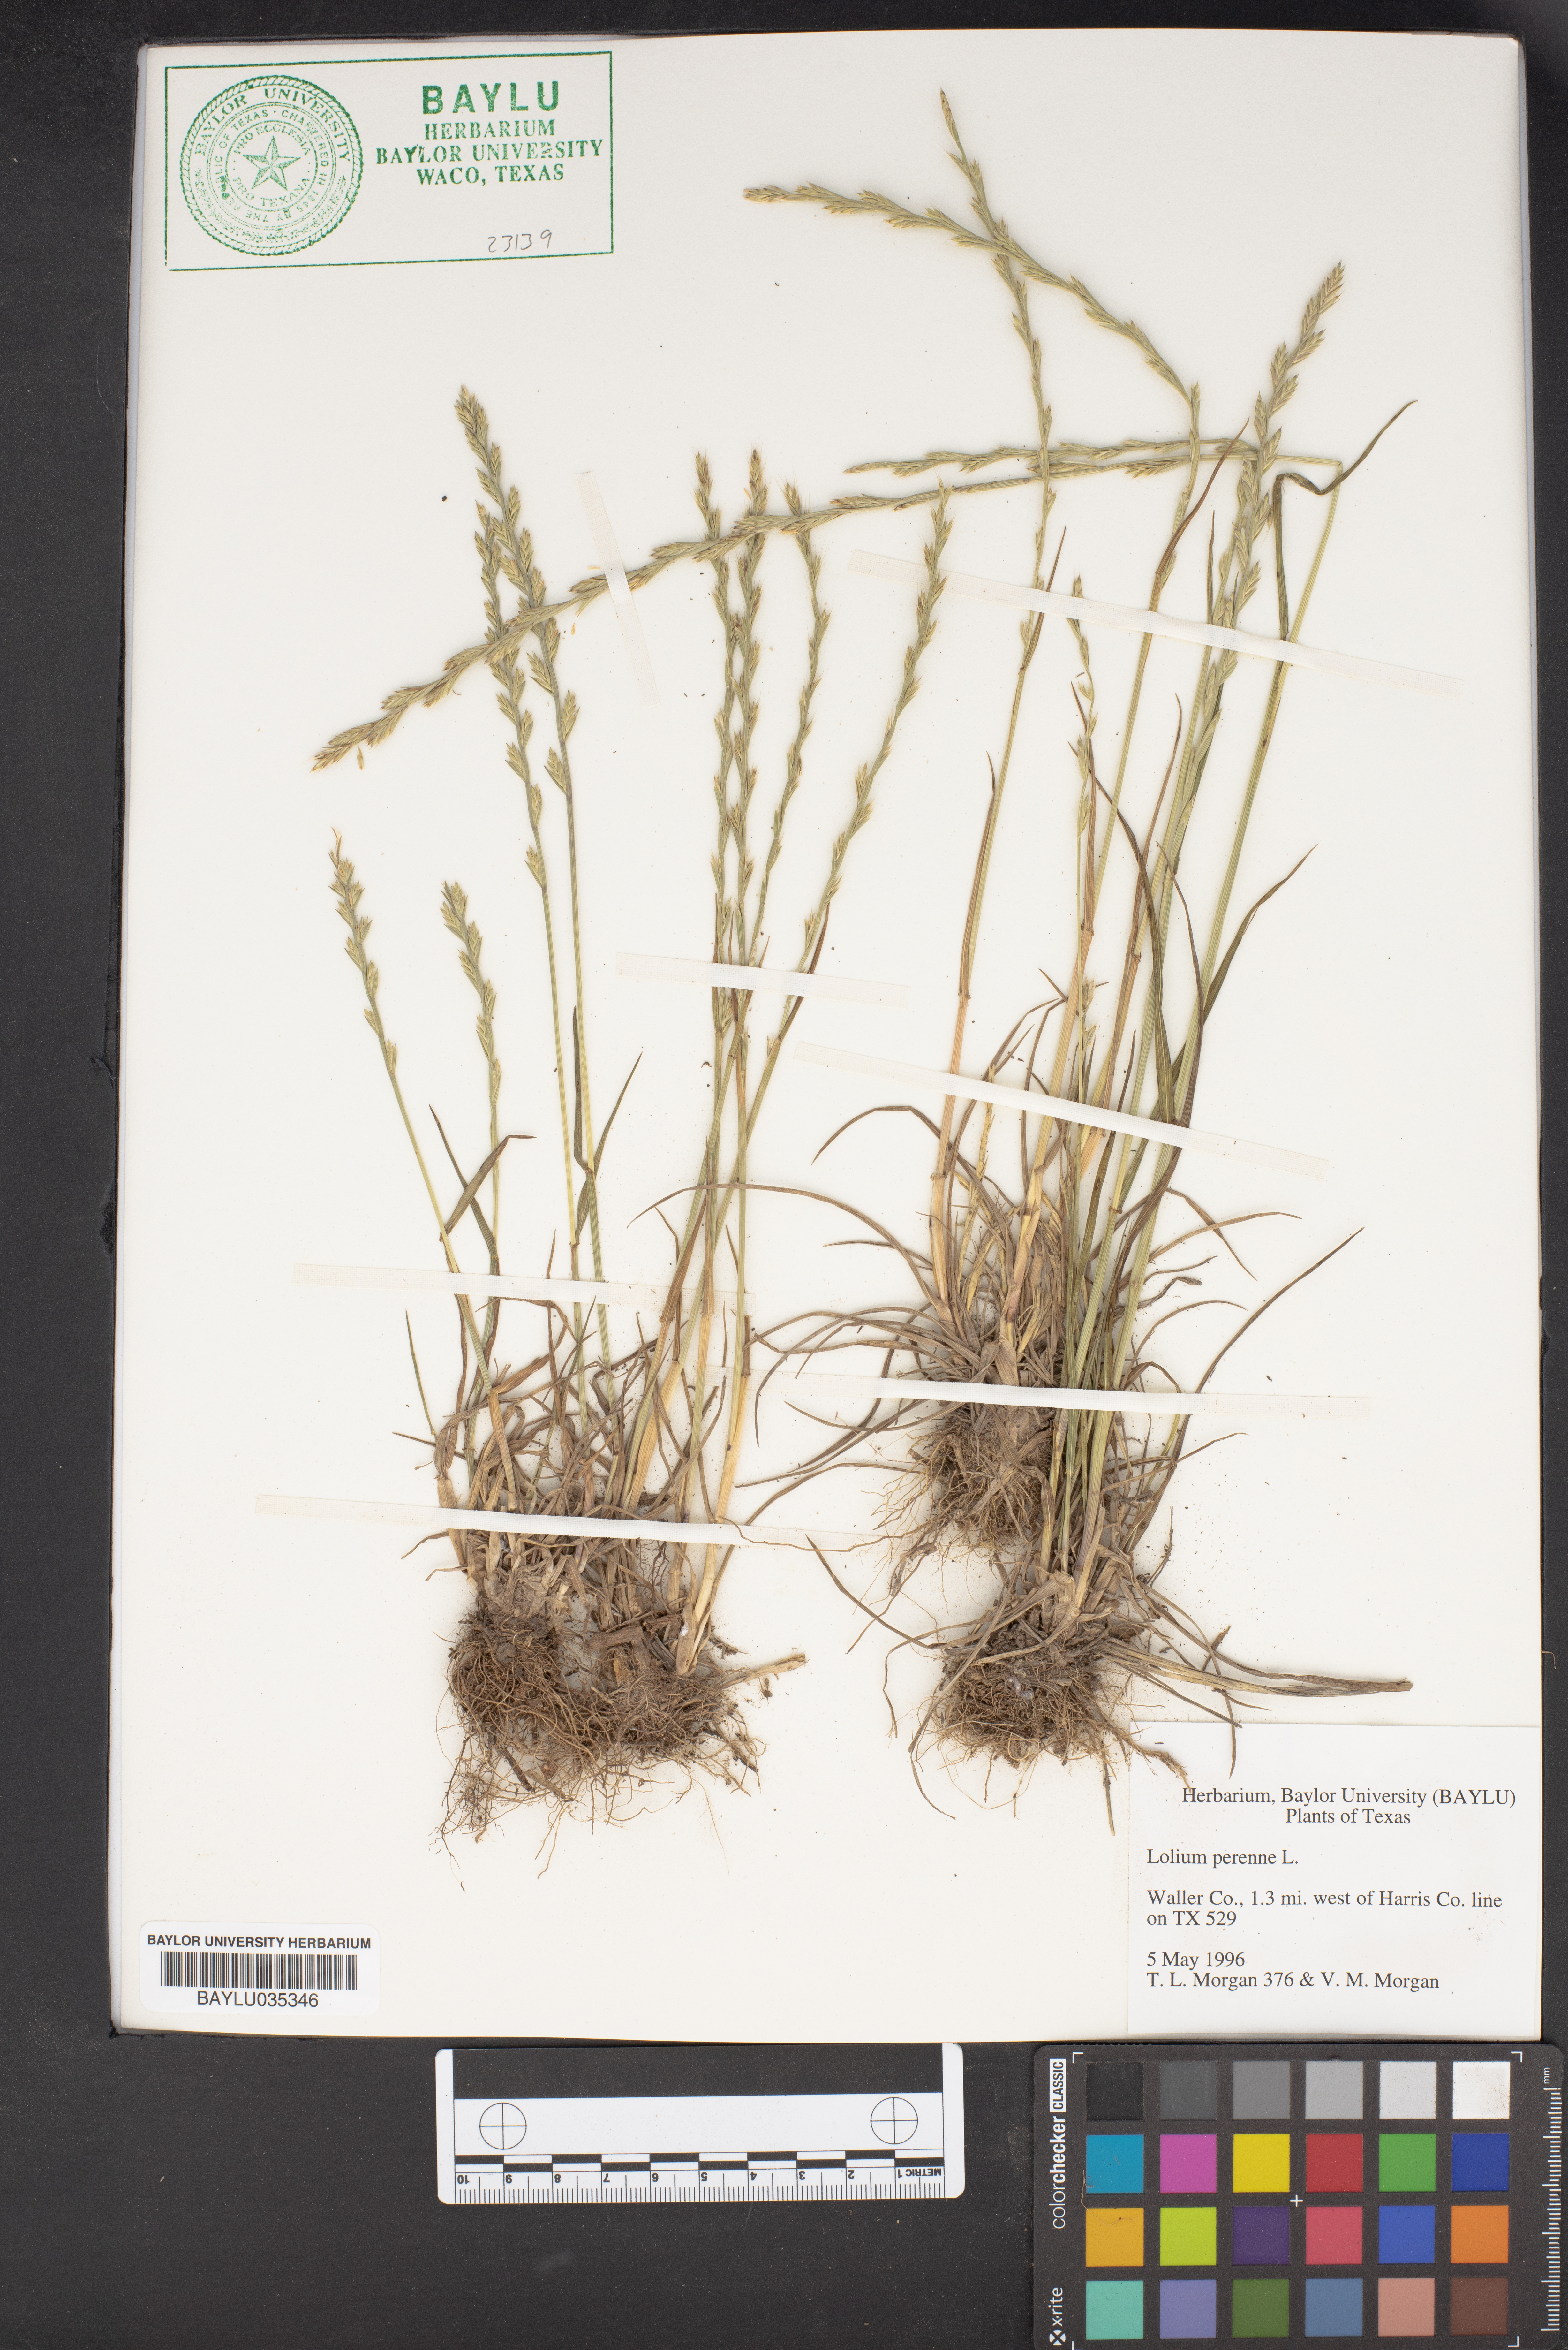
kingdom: Plantae
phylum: Tracheophyta
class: Liliopsida
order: Poales
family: Poaceae
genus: Lolium
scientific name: Lolium perenne
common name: Perennial ryegrass
